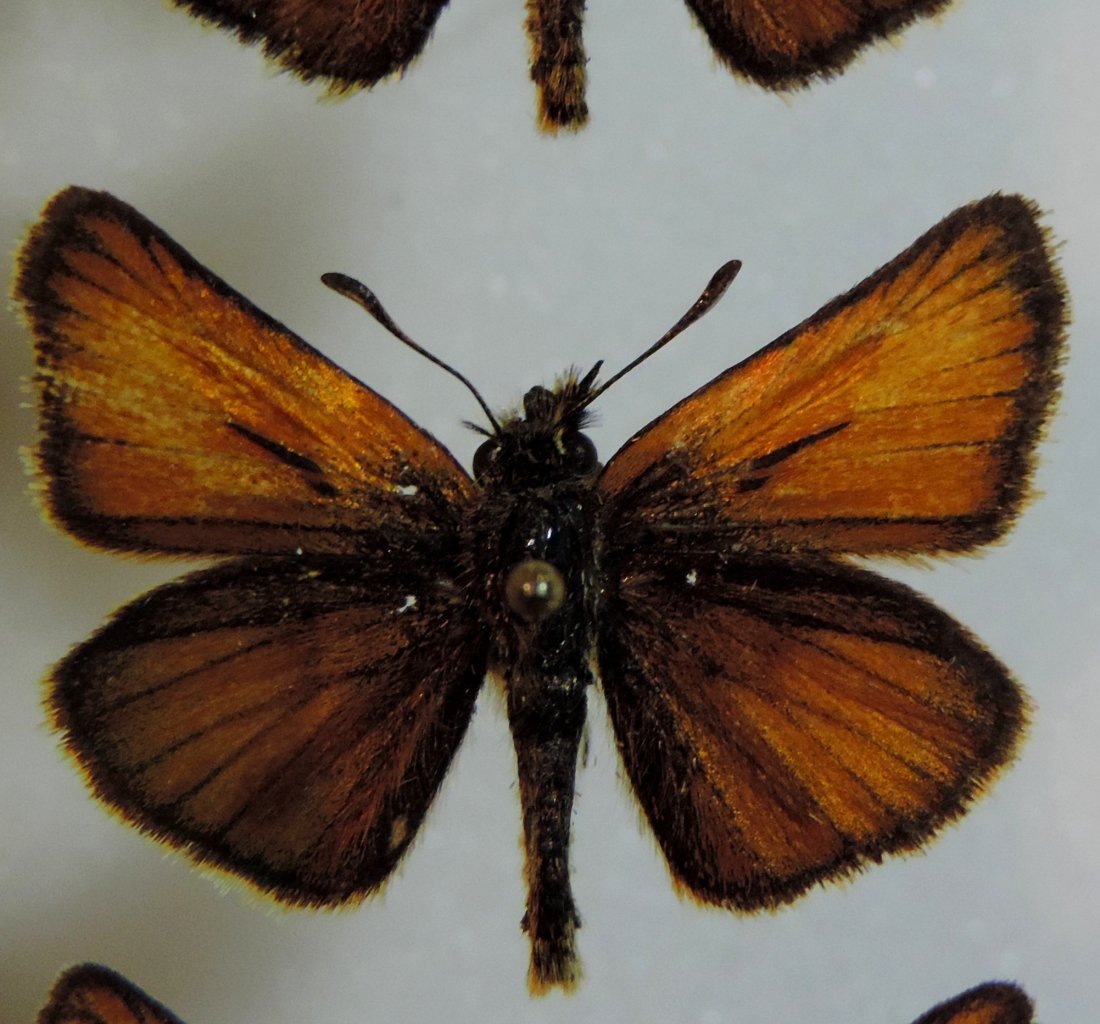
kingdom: Animalia
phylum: Arthropoda
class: Insecta
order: Lepidoptera
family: Hesperiidae
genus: Thymelicus
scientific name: Thymelicus lineola
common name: European Skipper
